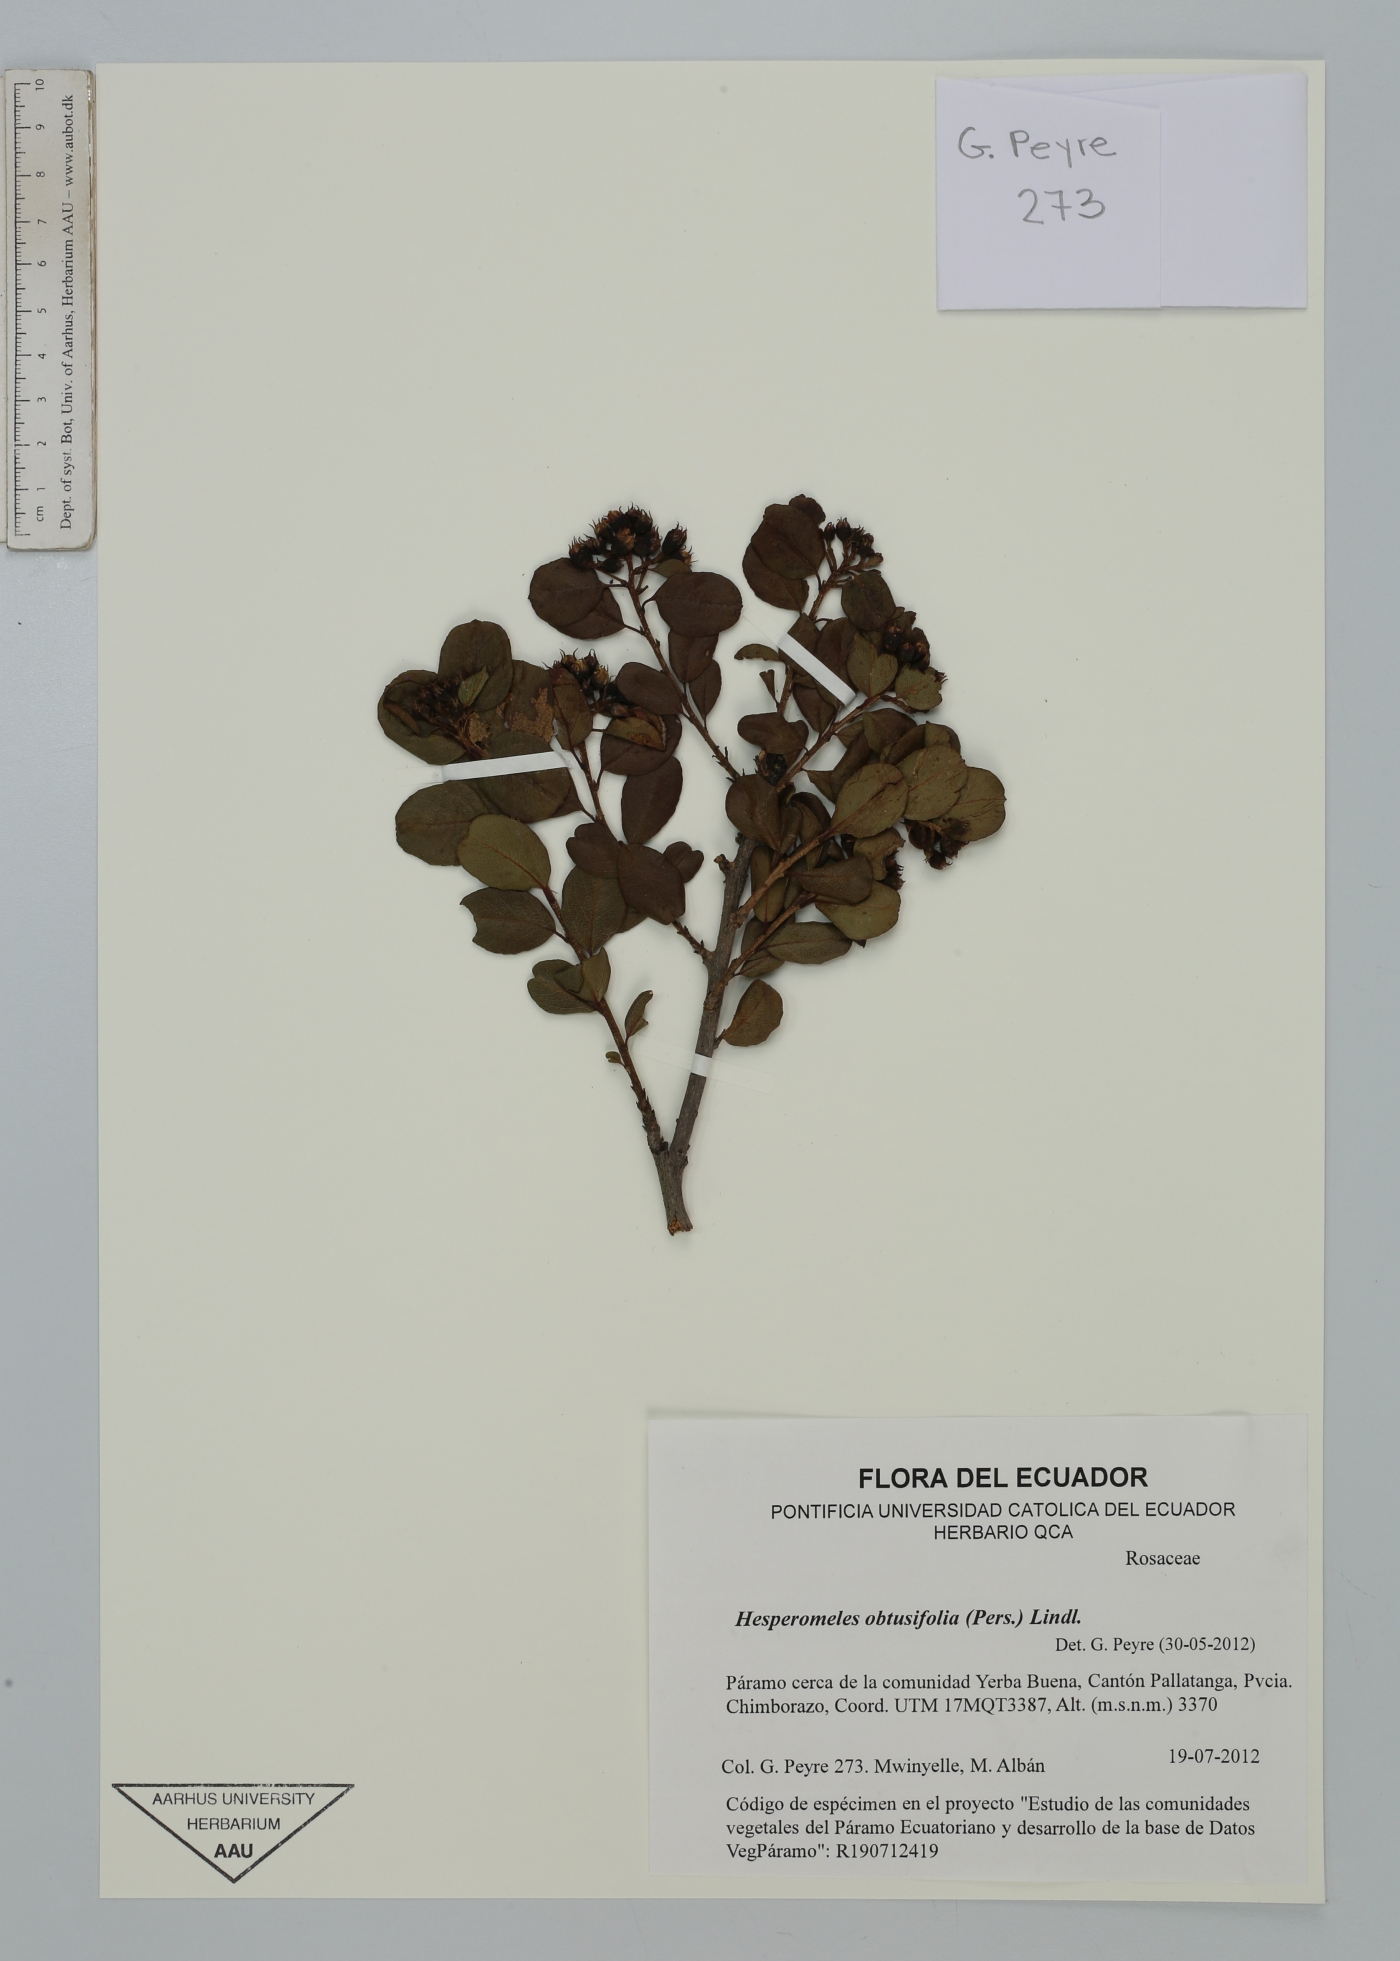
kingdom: Plantae
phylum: Tracheophyta
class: Magnoliopsida
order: Rosales
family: Rosaceae
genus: Hesperomeles
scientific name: Hesperomeles obtusifolia
